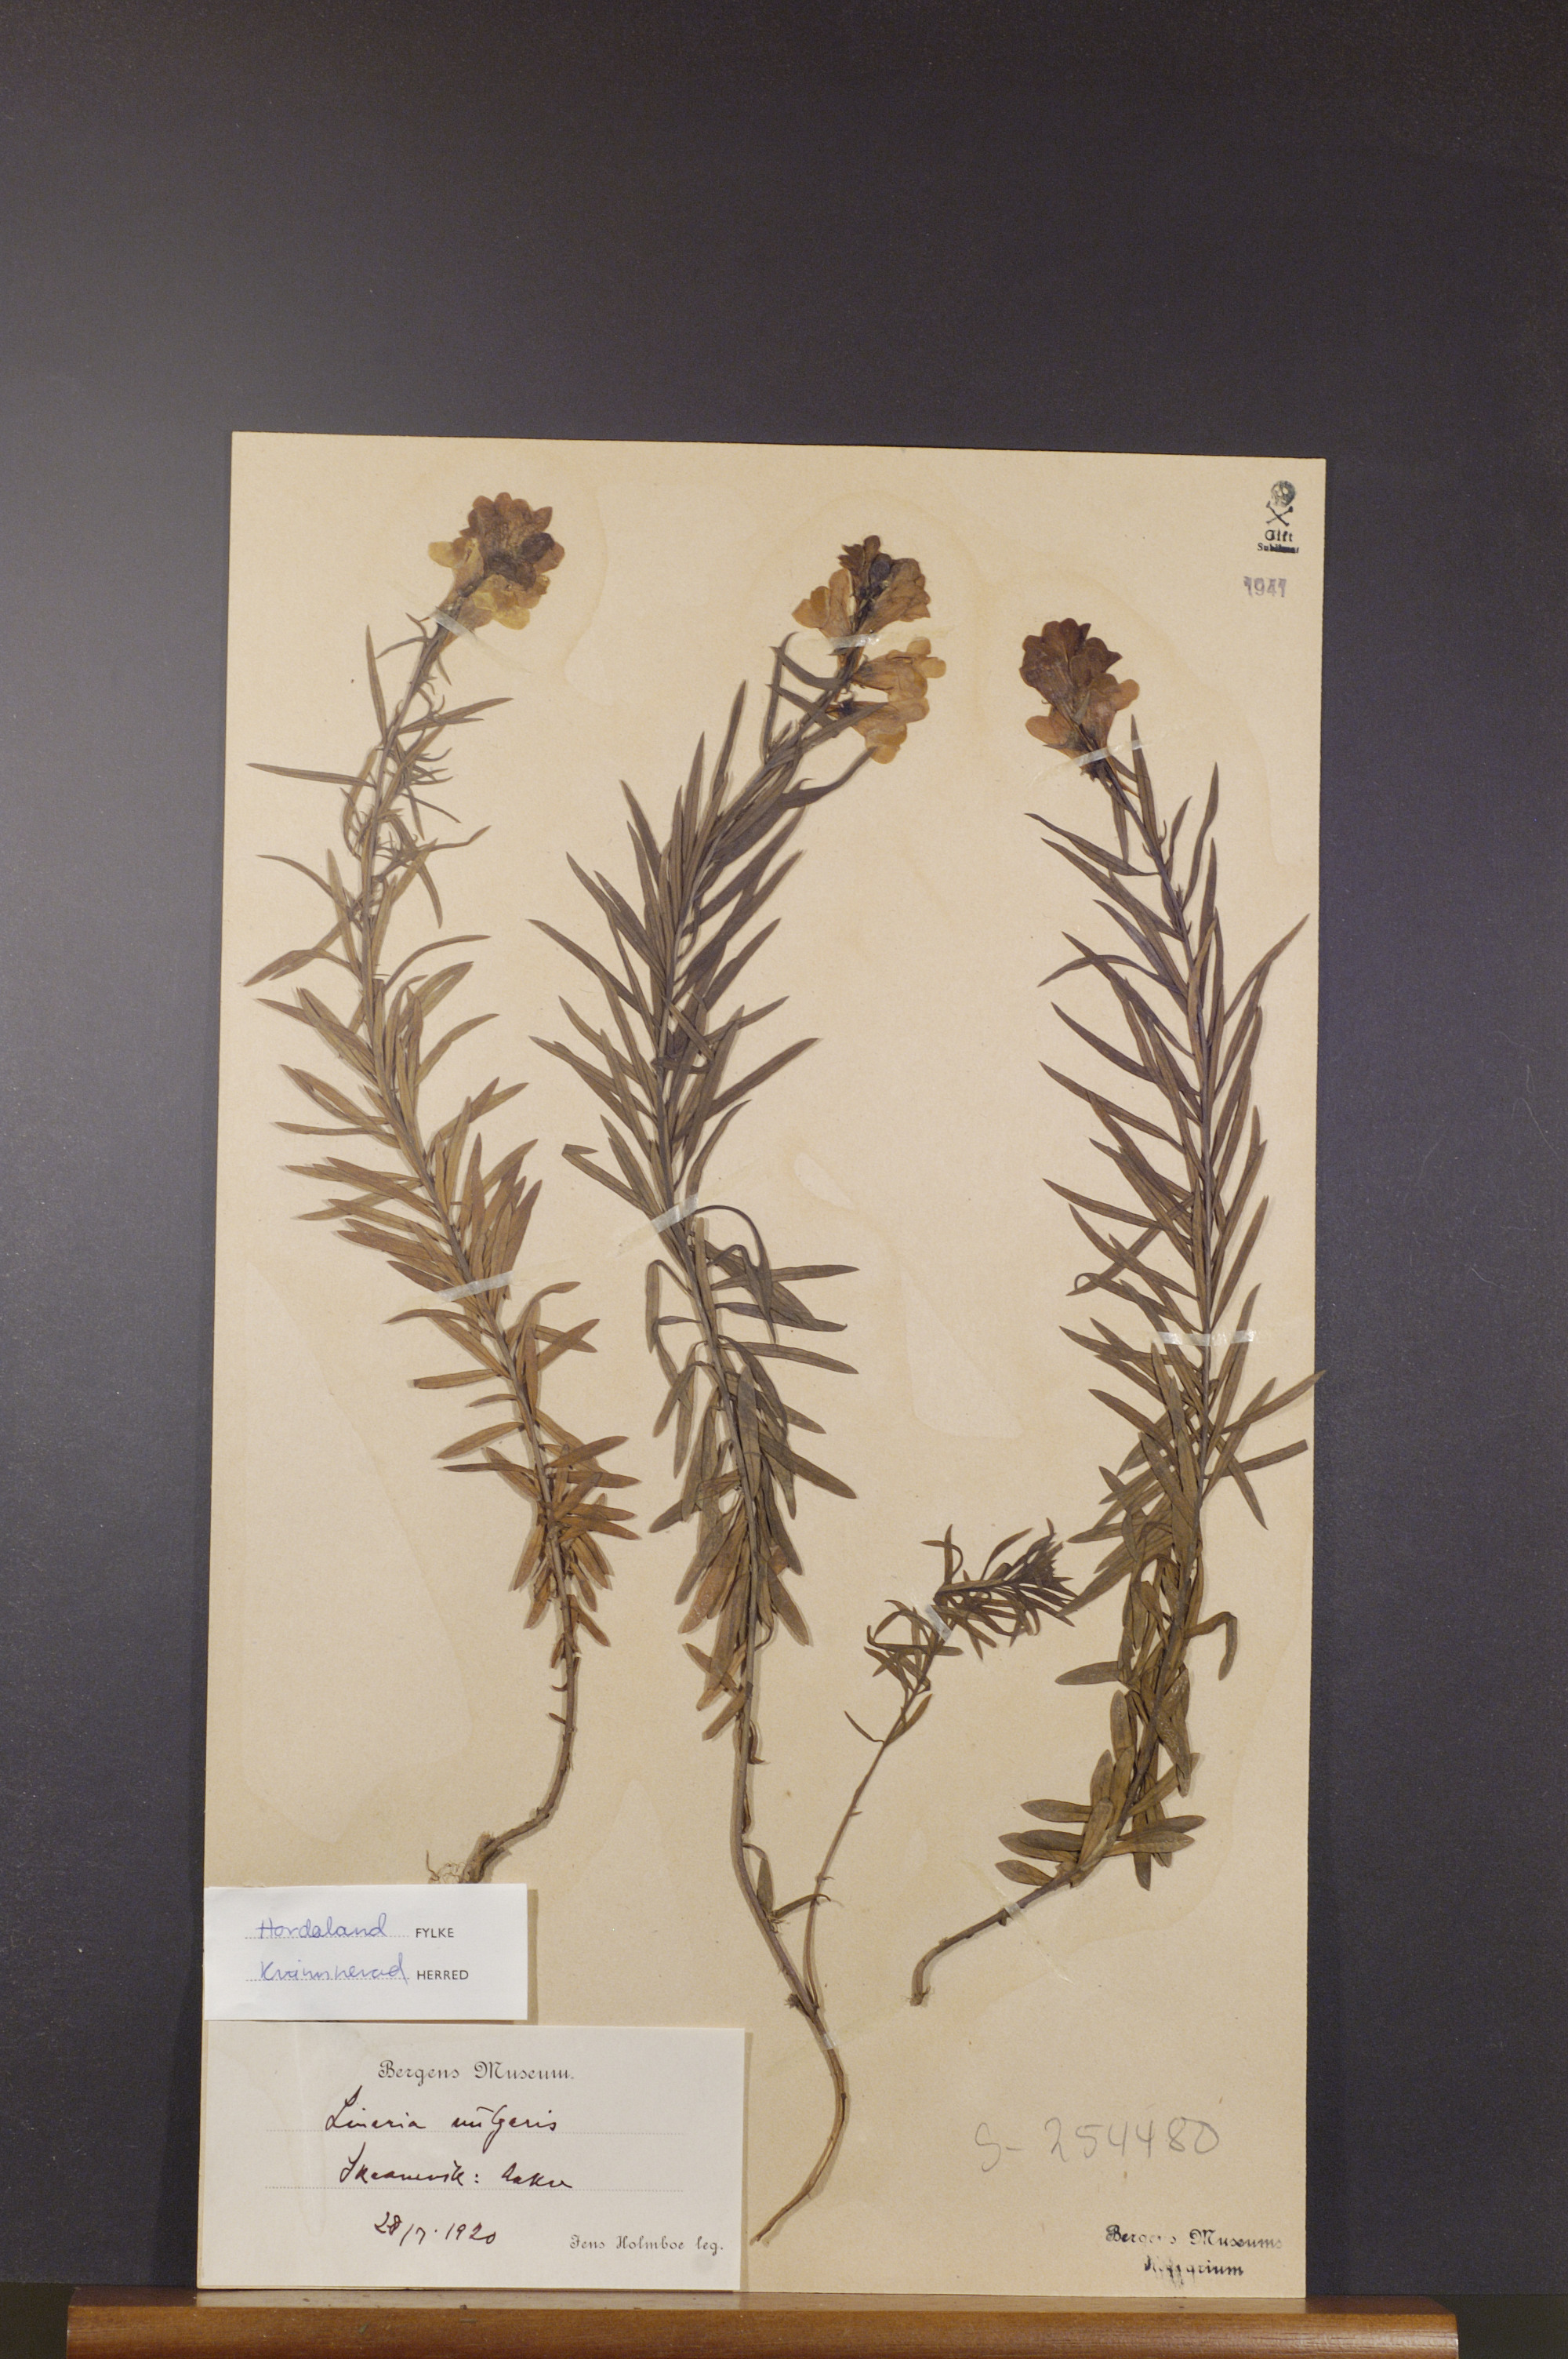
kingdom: Plantae
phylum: Tracheophyta
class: Magnoliopsida
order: Lamiales
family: Plantaginaceae
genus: Linaria
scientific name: Linaria vulgaris
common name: Butter and eggs
